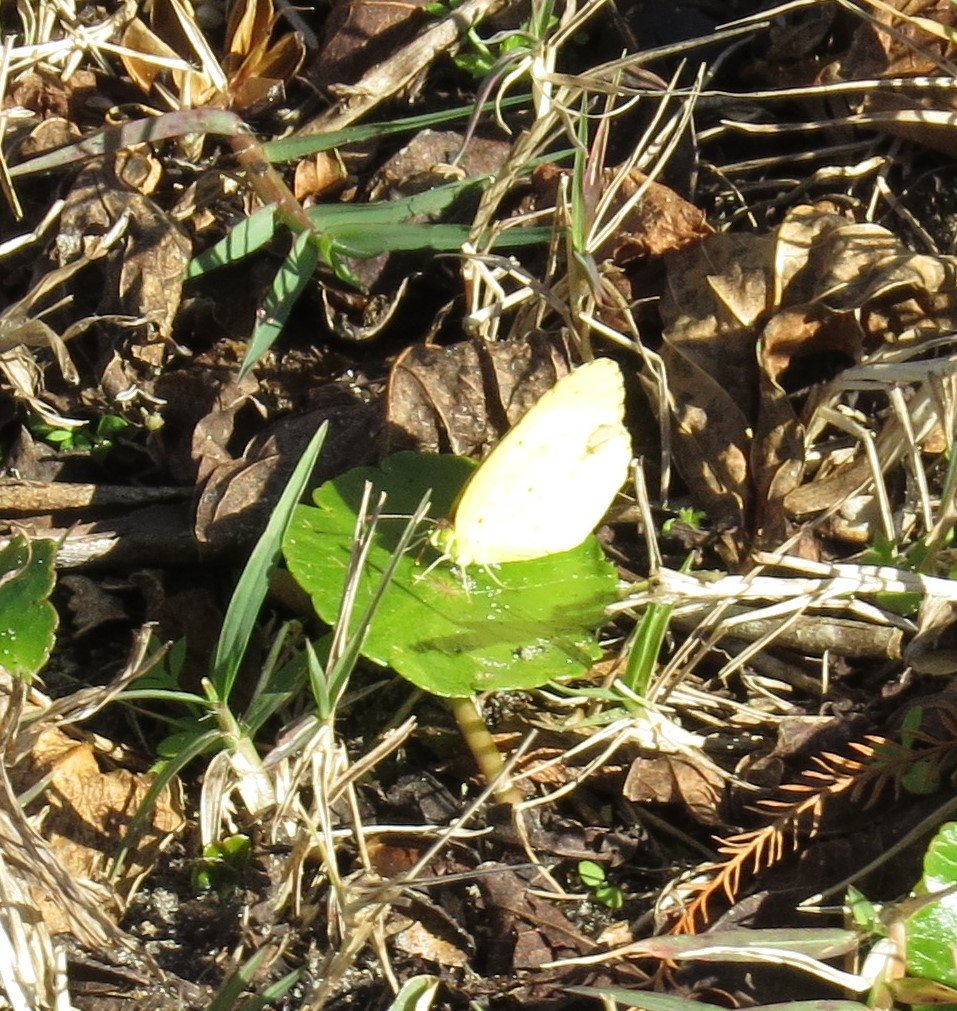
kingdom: Animalia
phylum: Arthropoda
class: Insecta
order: Lepidoptera
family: Pieridae
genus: Pyrisitia
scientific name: Pyrisitia lisa
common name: Little Yellow
